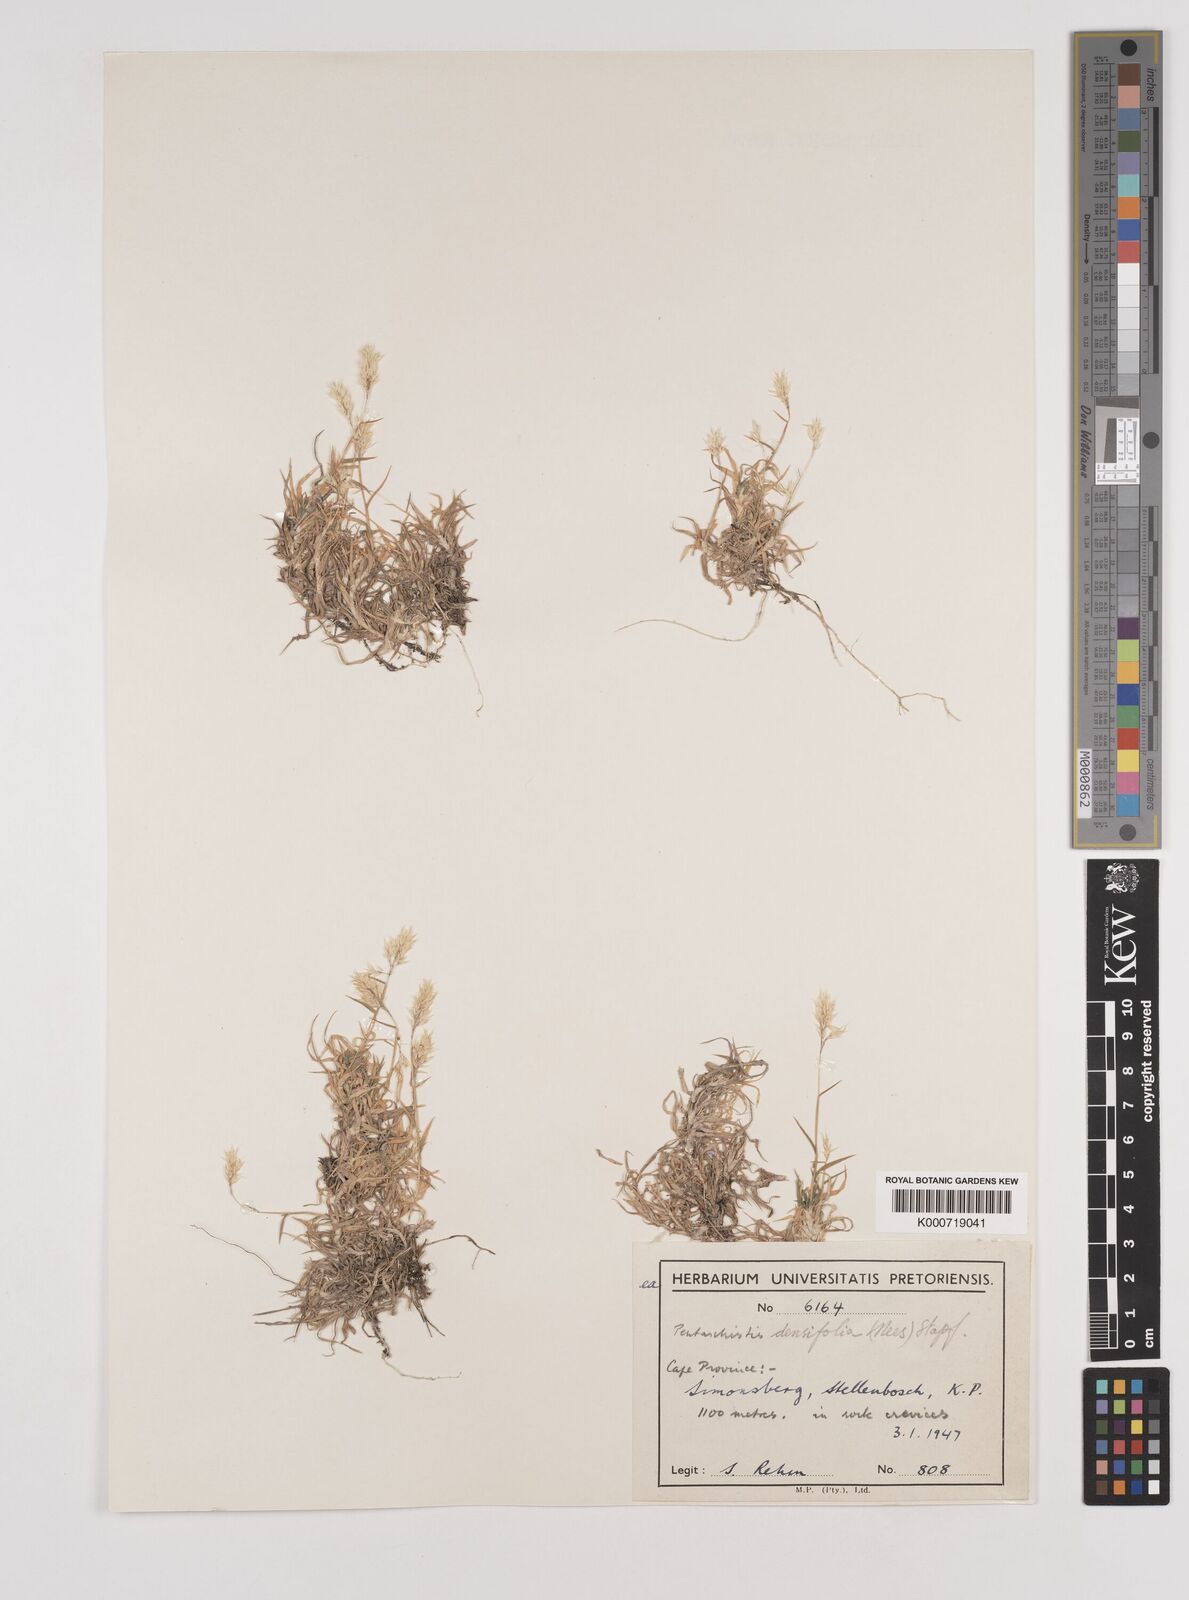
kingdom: Plantae
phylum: Tracheophyta
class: Liliopsida
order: Poales
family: Poaceae
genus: Pentameris
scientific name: Pentameris densifolia
